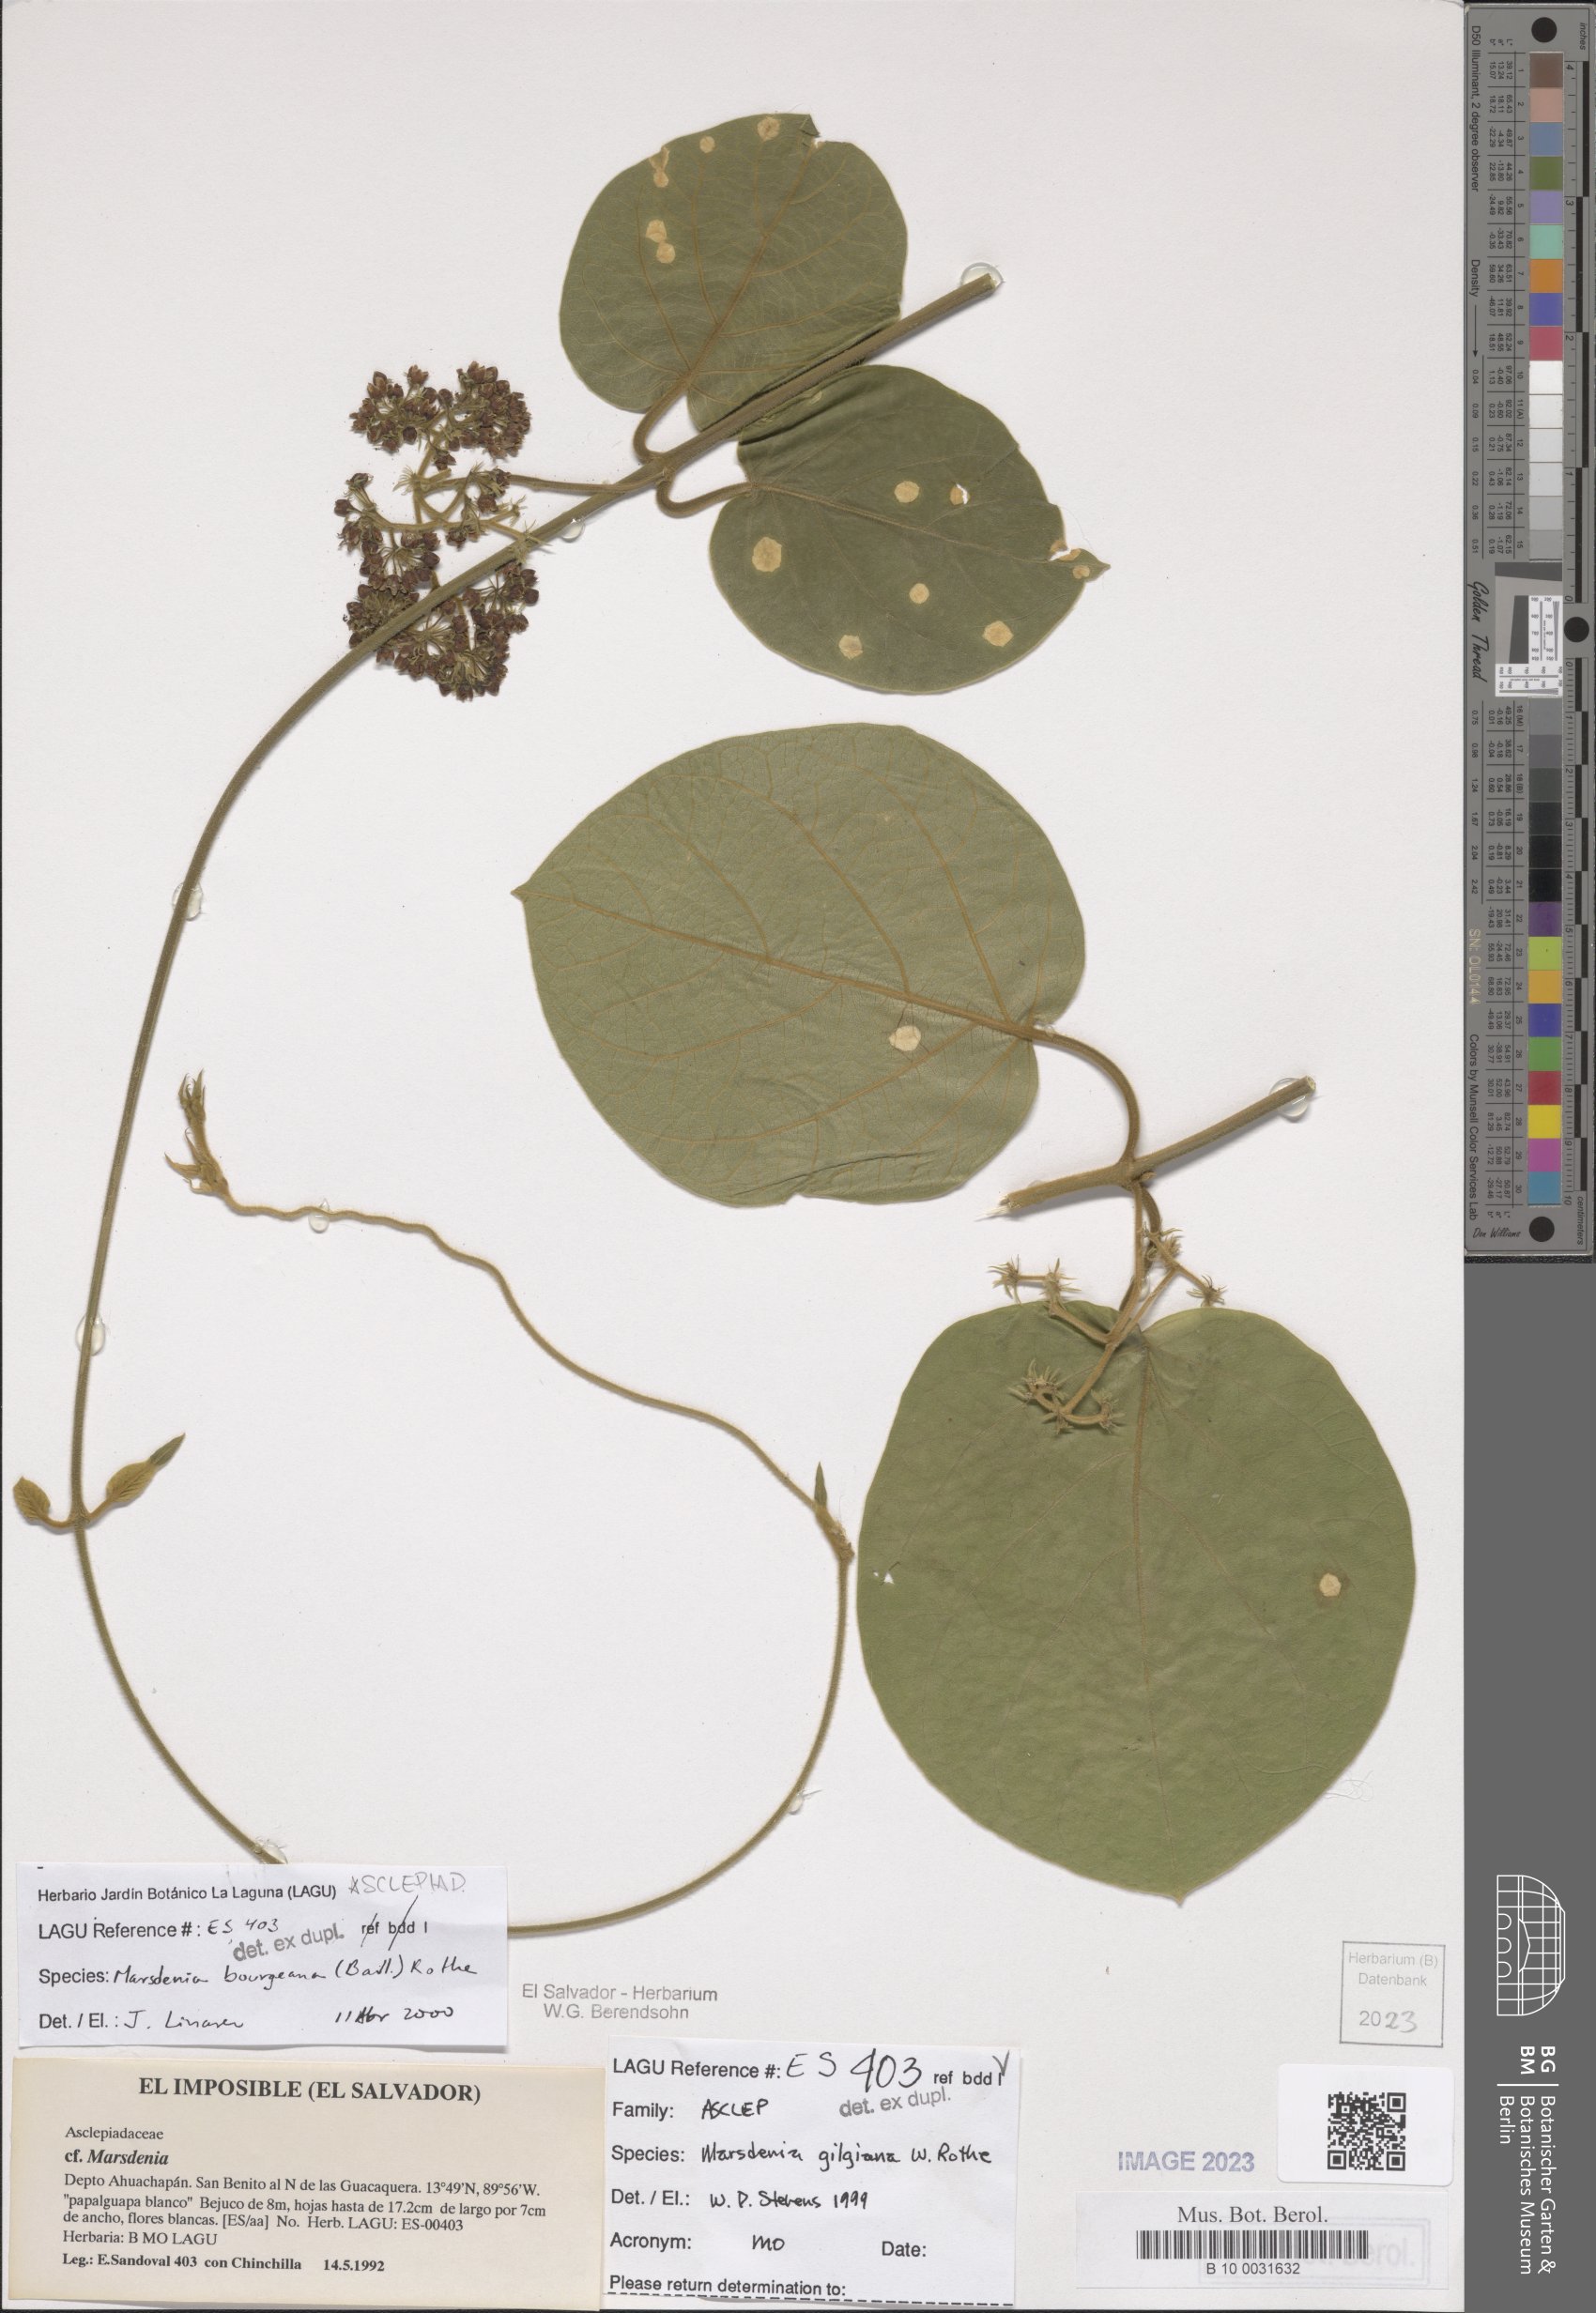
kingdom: Plantae
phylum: Tracheophyta
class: Magnoliopsida
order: Gentianales
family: Apocynaceae
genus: Ruehssia
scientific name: Ruehssia gilgiana
